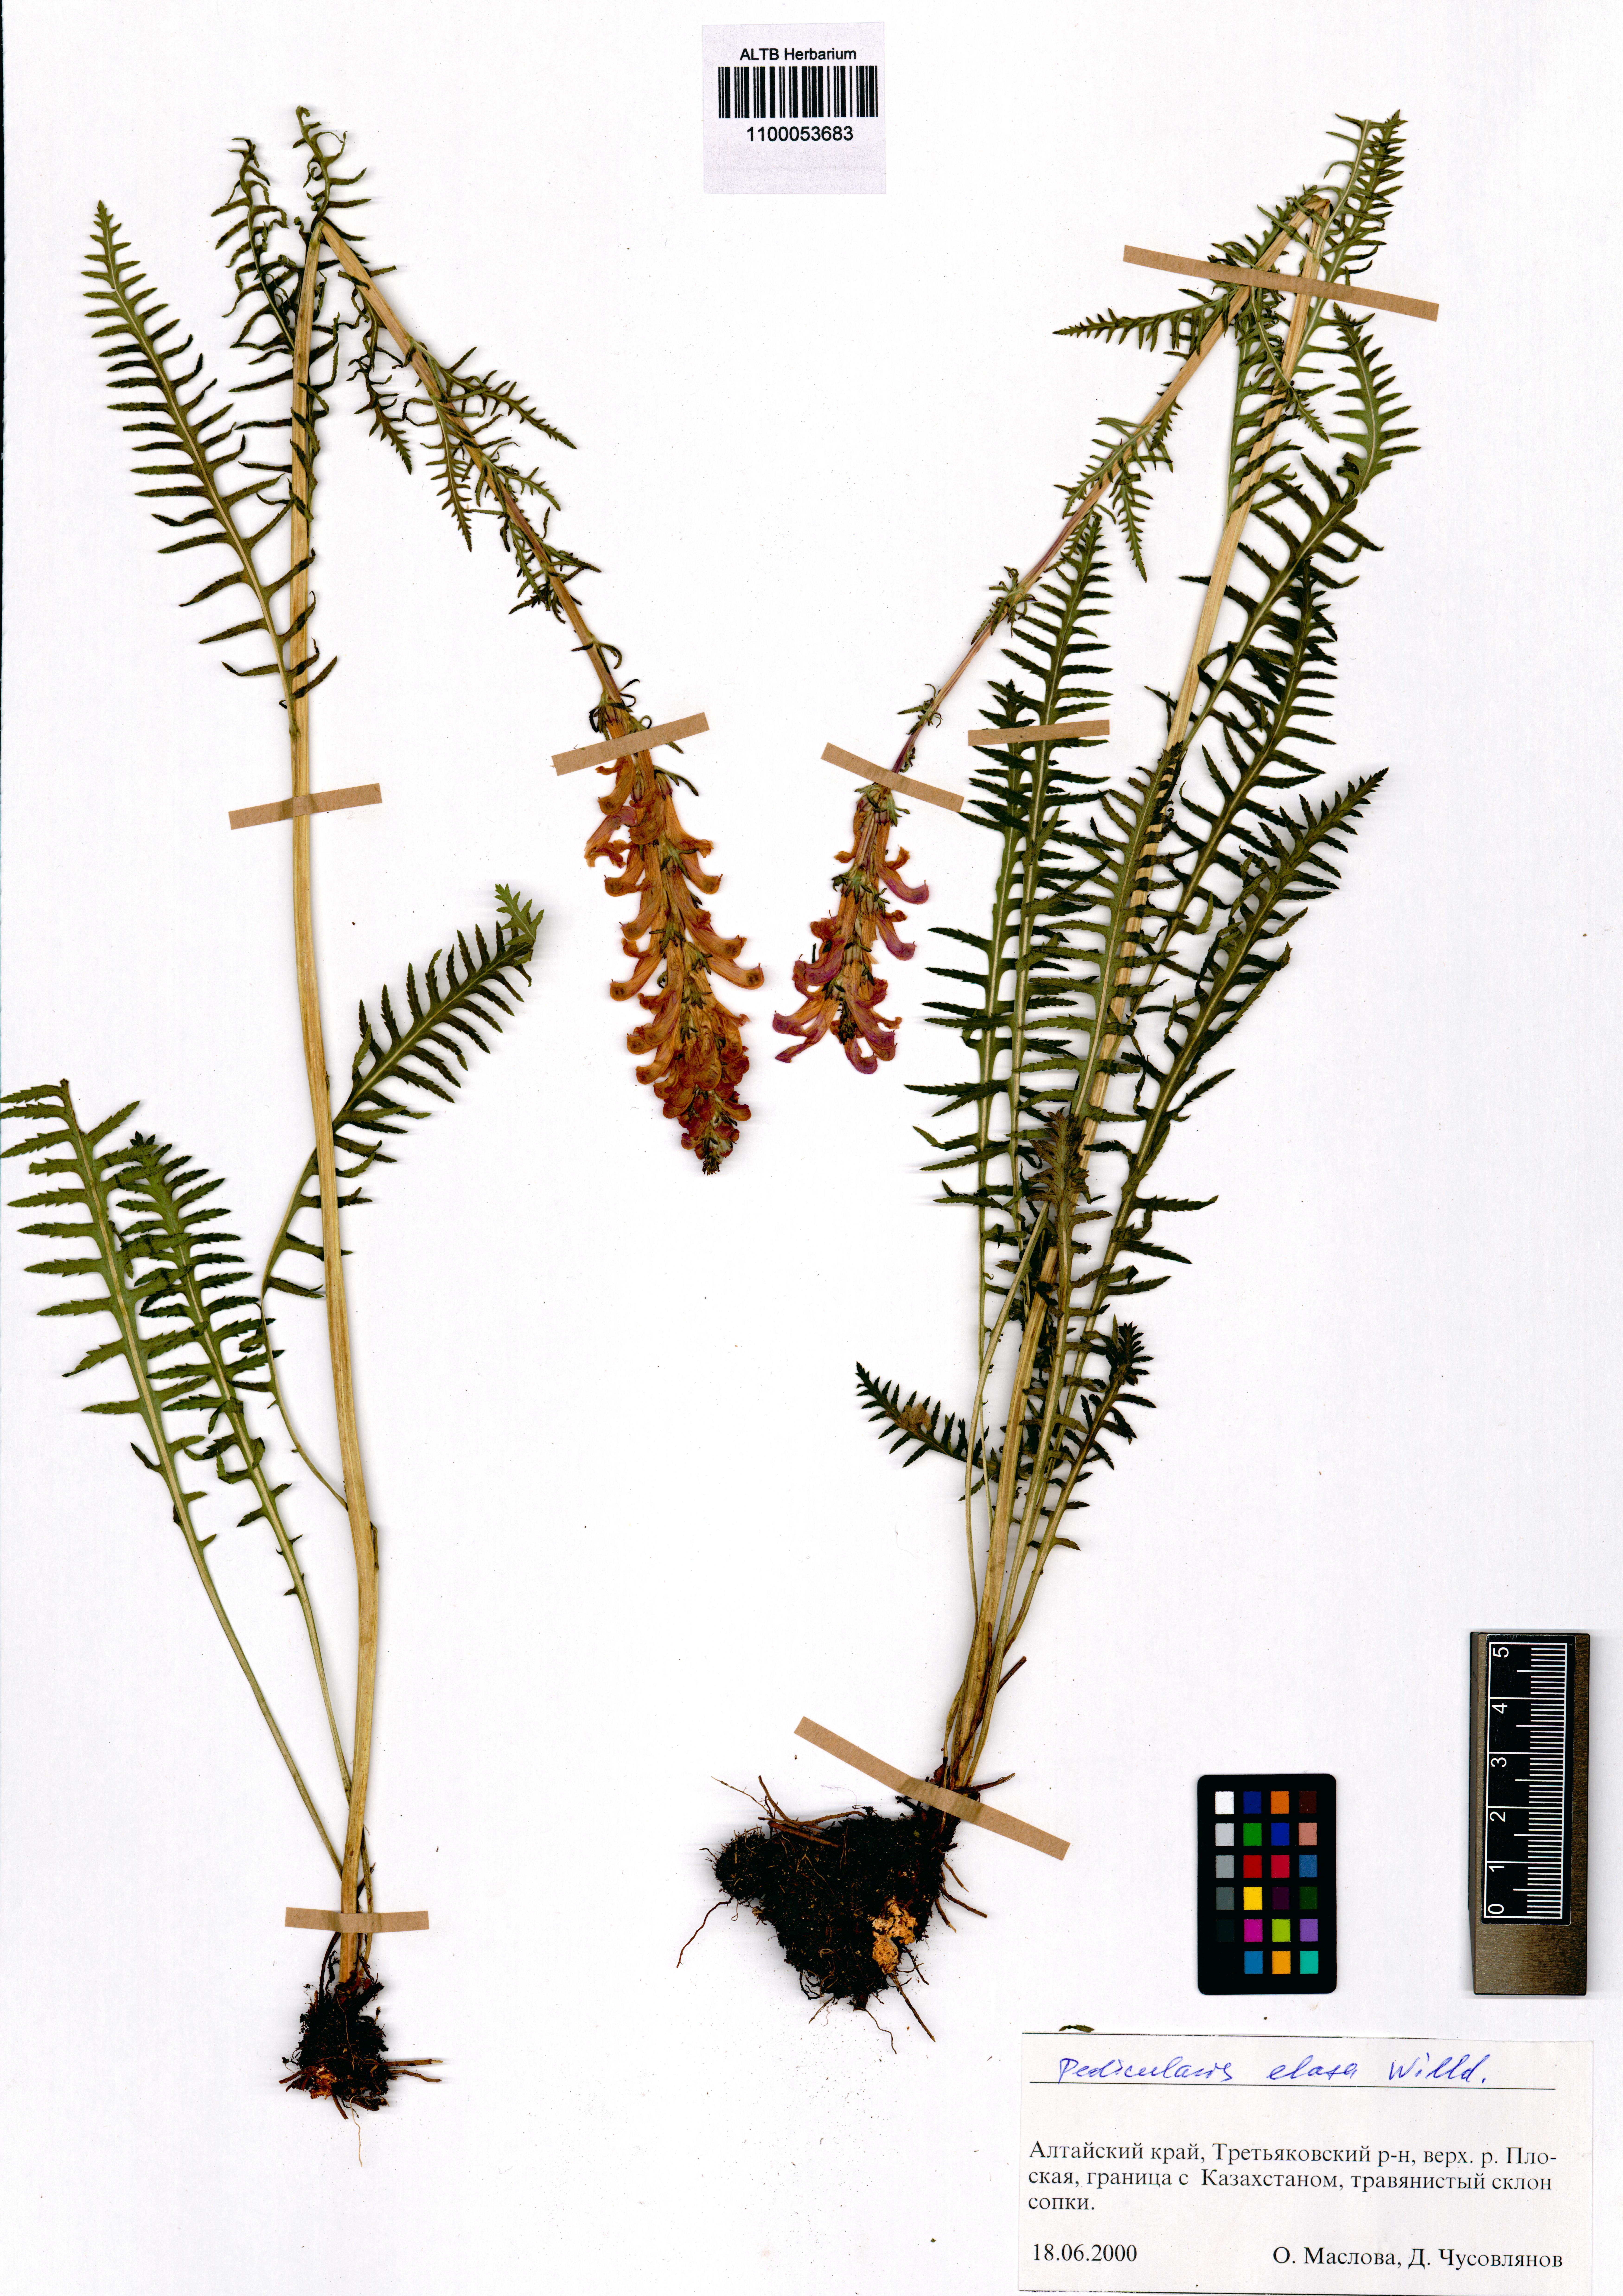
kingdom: Plantae
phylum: Tracheophyta
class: Magnoliopsida
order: Lamiales
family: Orobanchaceae
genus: Pedicularis
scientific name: Pedicularis elata
